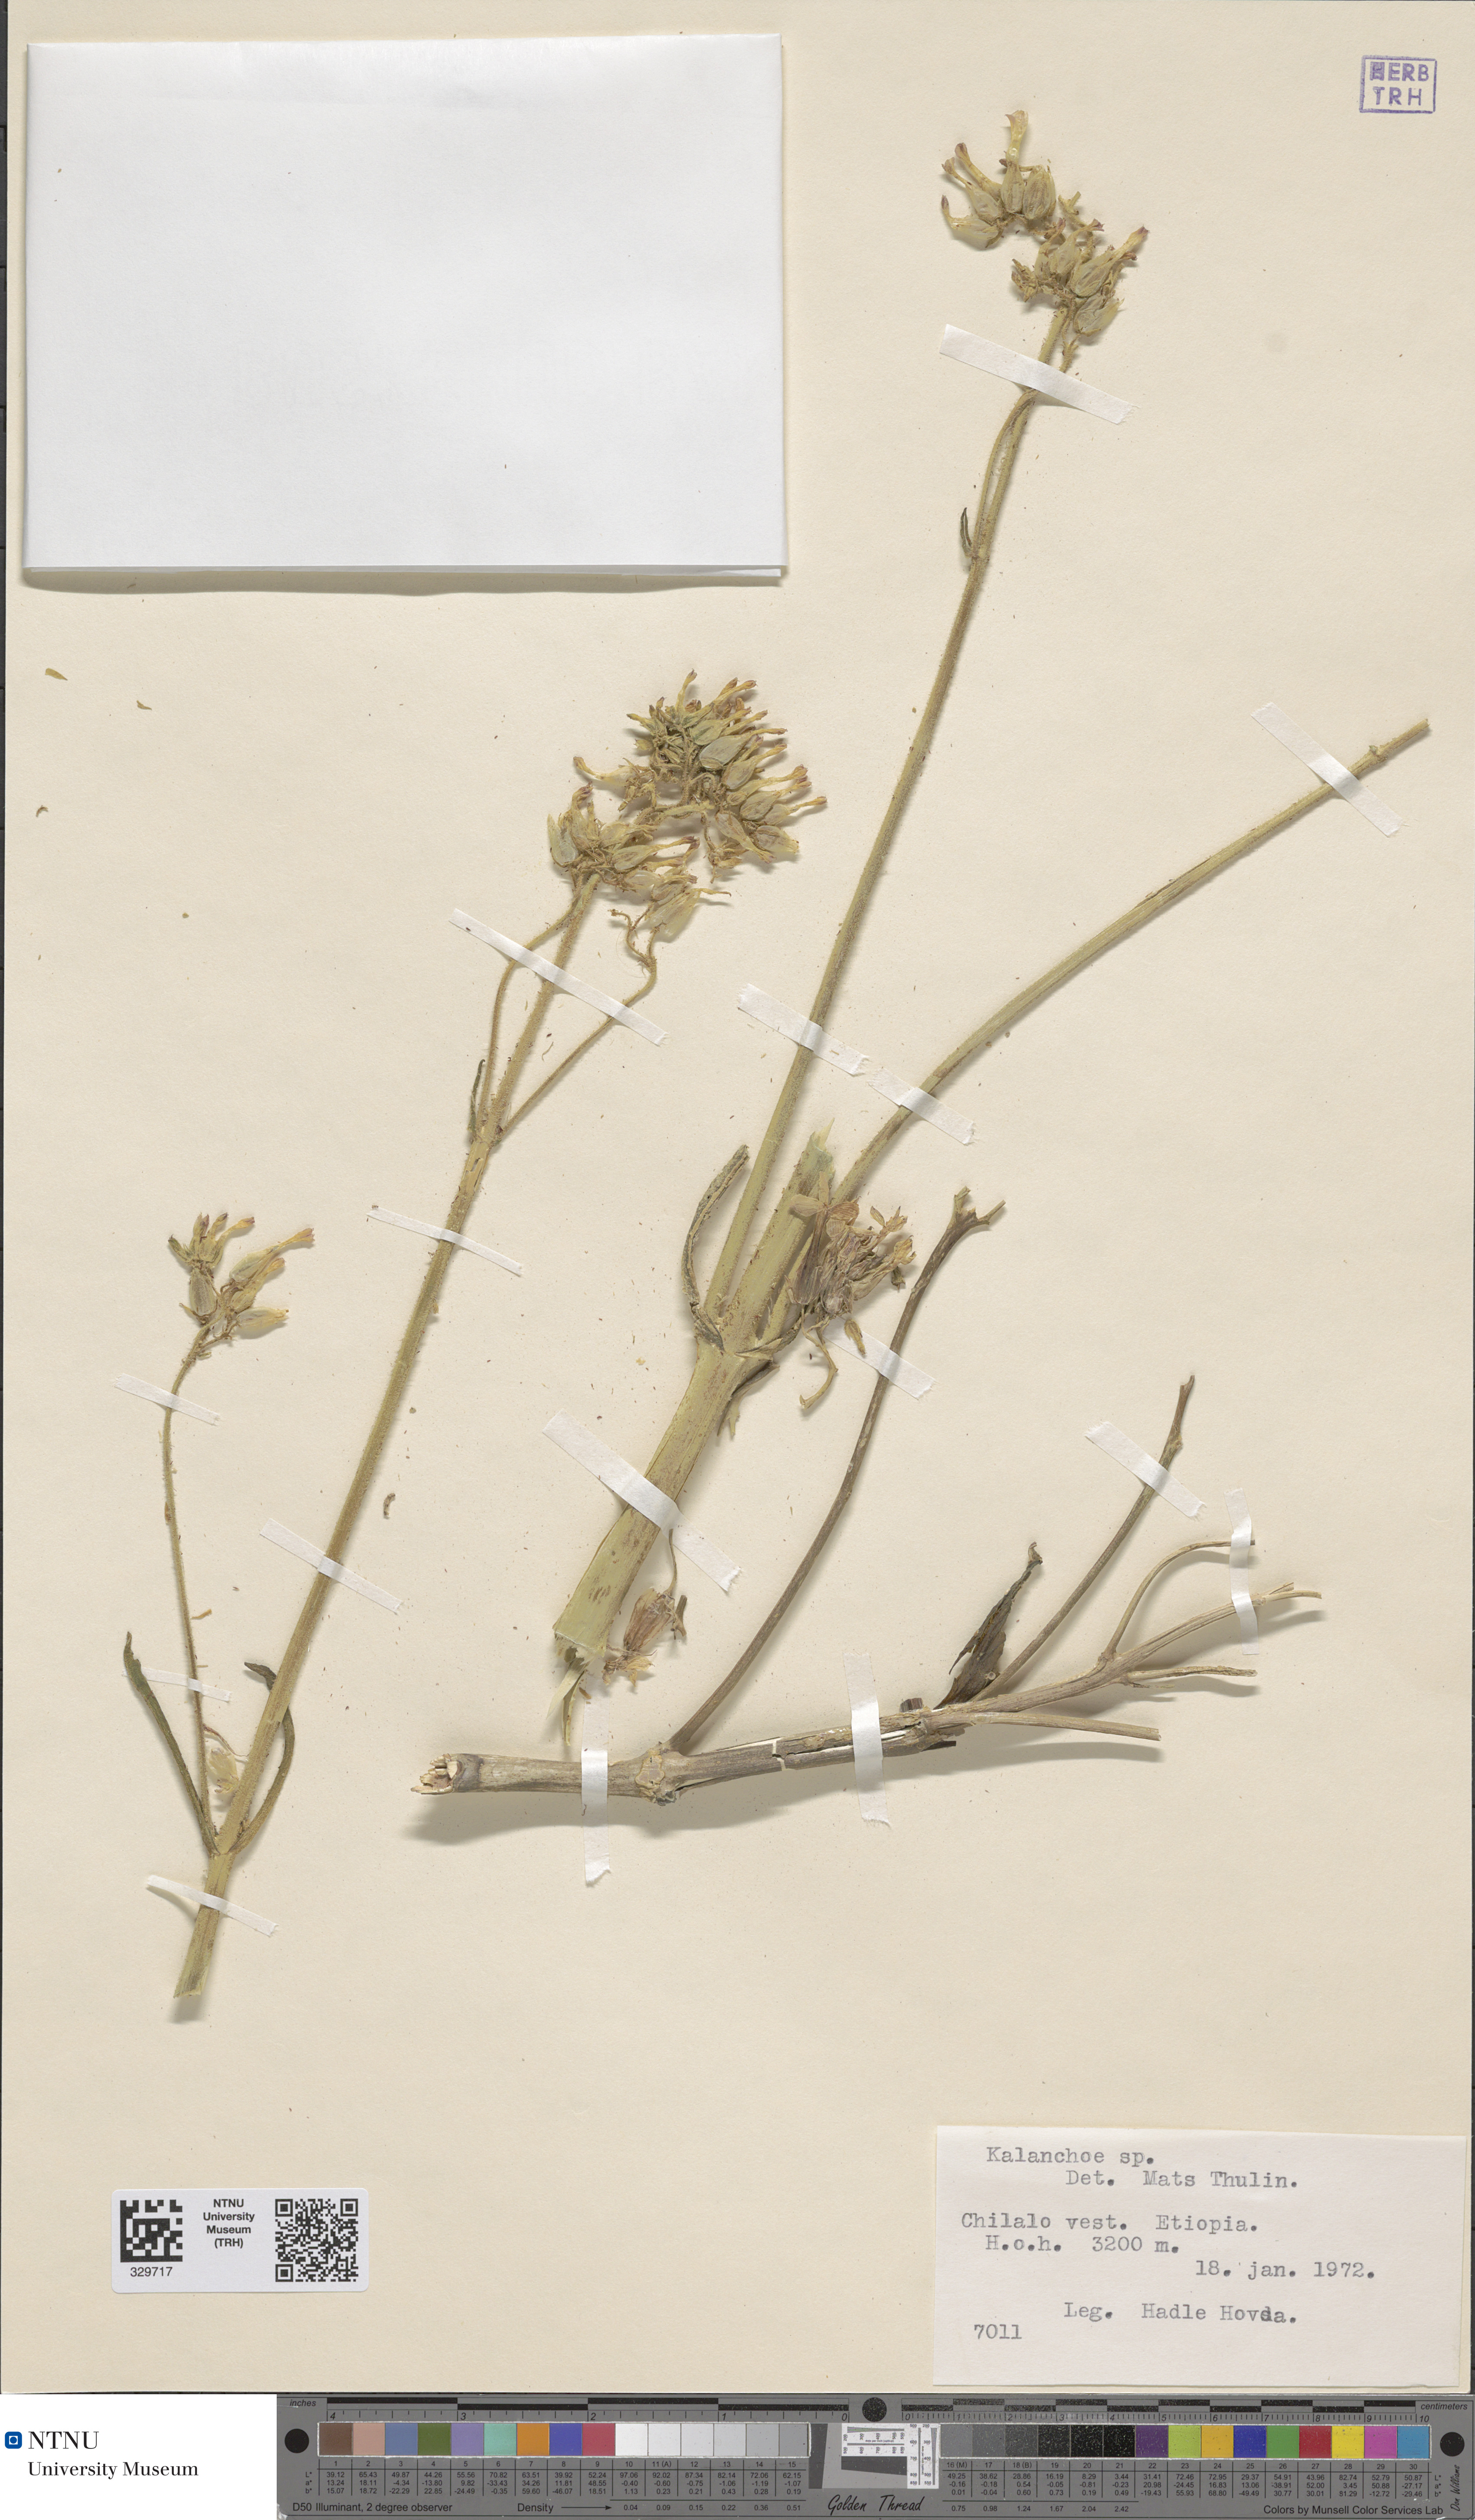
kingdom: Plantae
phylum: Tracheophyta
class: Magnoliopsida
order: Saxifragales
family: Crassulaceae
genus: Kalanchoe
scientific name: Kalanchoe
